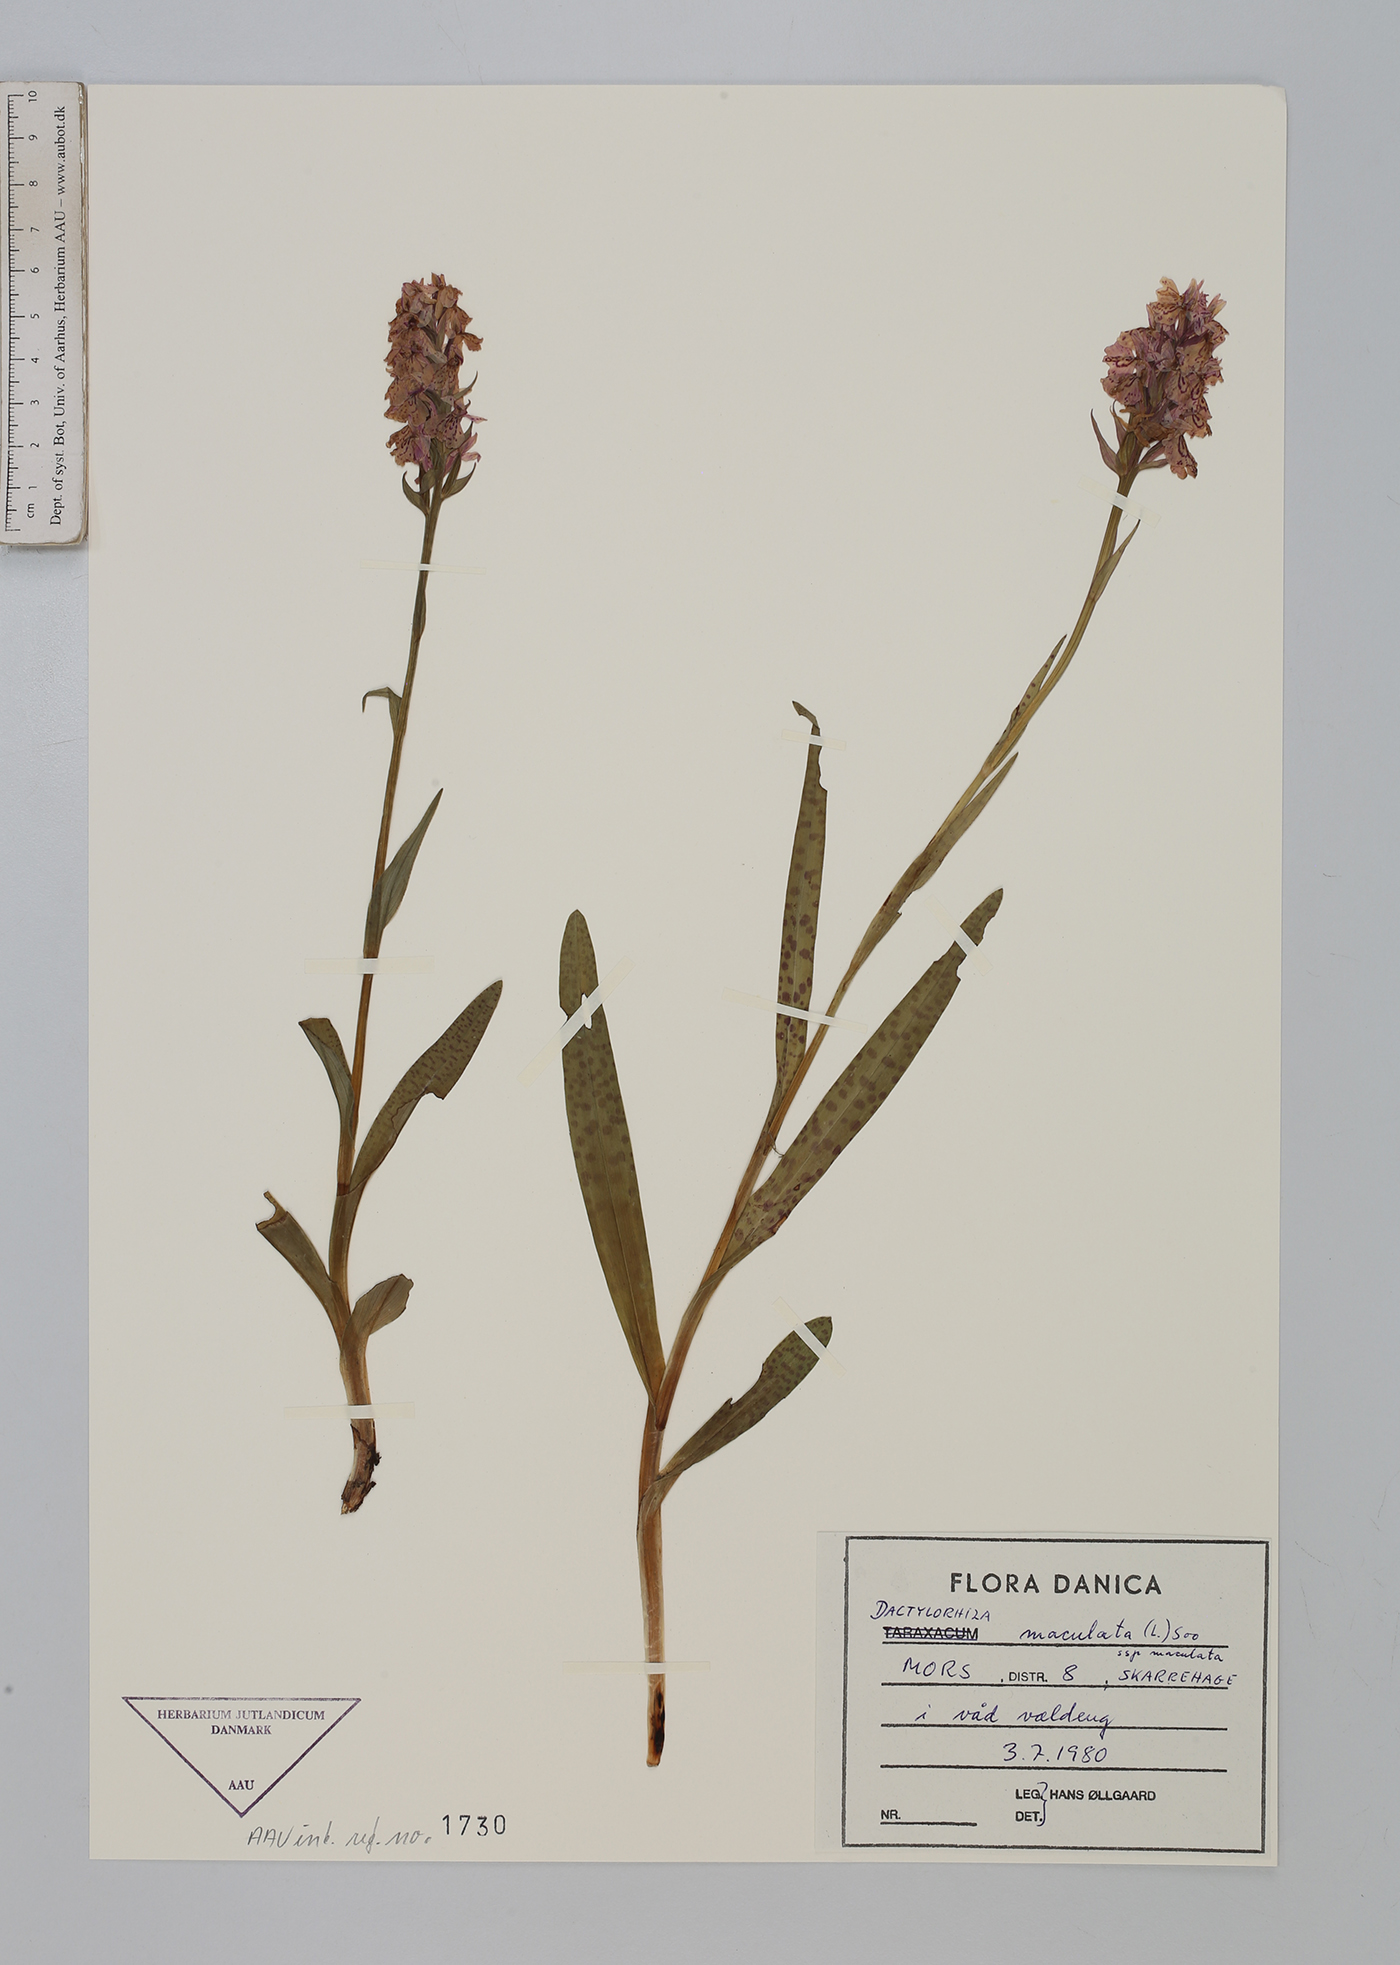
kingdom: Plantae
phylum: Tracheophyta
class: Liliopsida
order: Asparagales
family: Orchidaceae
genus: Dactylorhiza
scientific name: Dactylorhiza maculata
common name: Heath spotted-orchid
